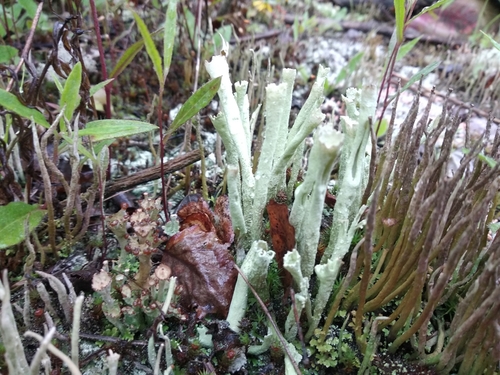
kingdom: Fungi
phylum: Ascomycota
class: Lecanoromycetes
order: Lecanorales
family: Cladoniaceae
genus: Cladonia
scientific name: Cladonia
